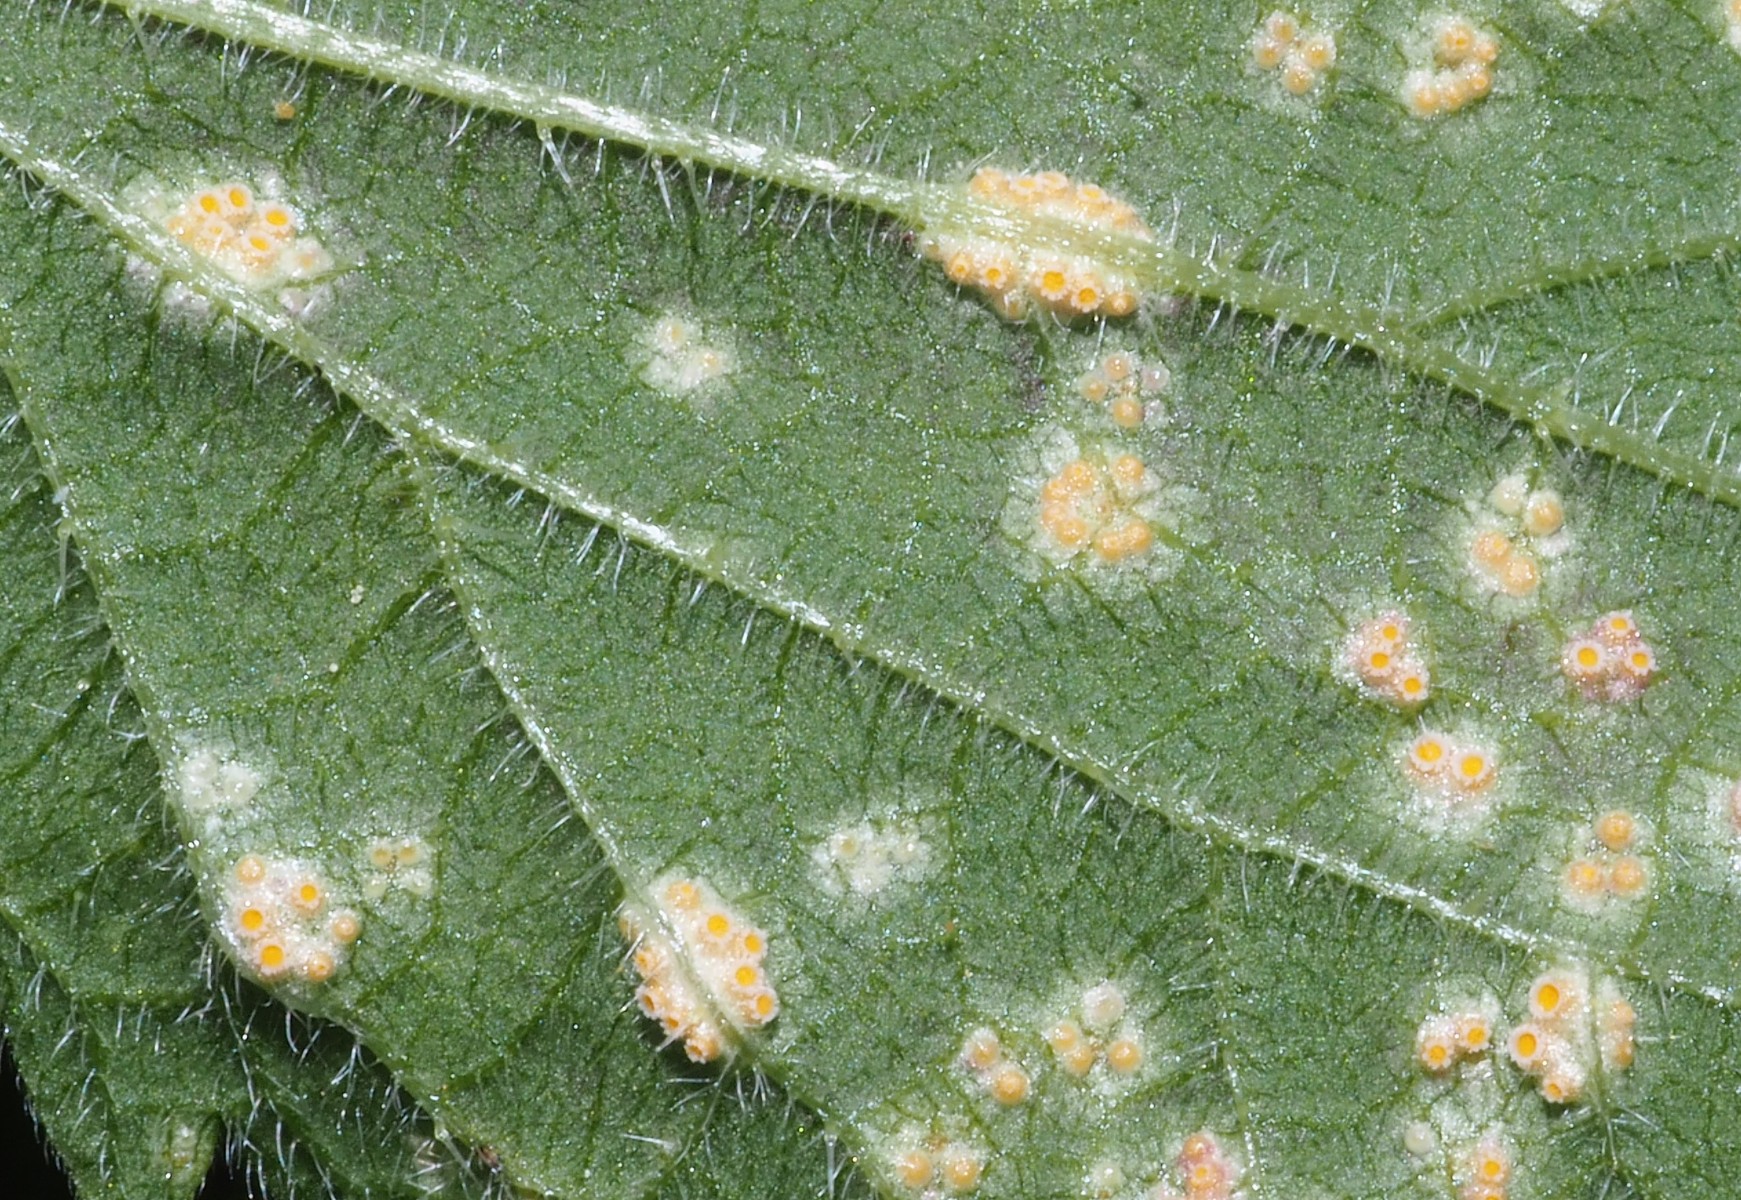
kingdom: Fungi
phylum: Basidiomycota
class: Pucciniomycetes
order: Pucciniales
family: Pucciniaceae
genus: Puccinia
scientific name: Puccinia urticata
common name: nældegalle-tvecellerust
